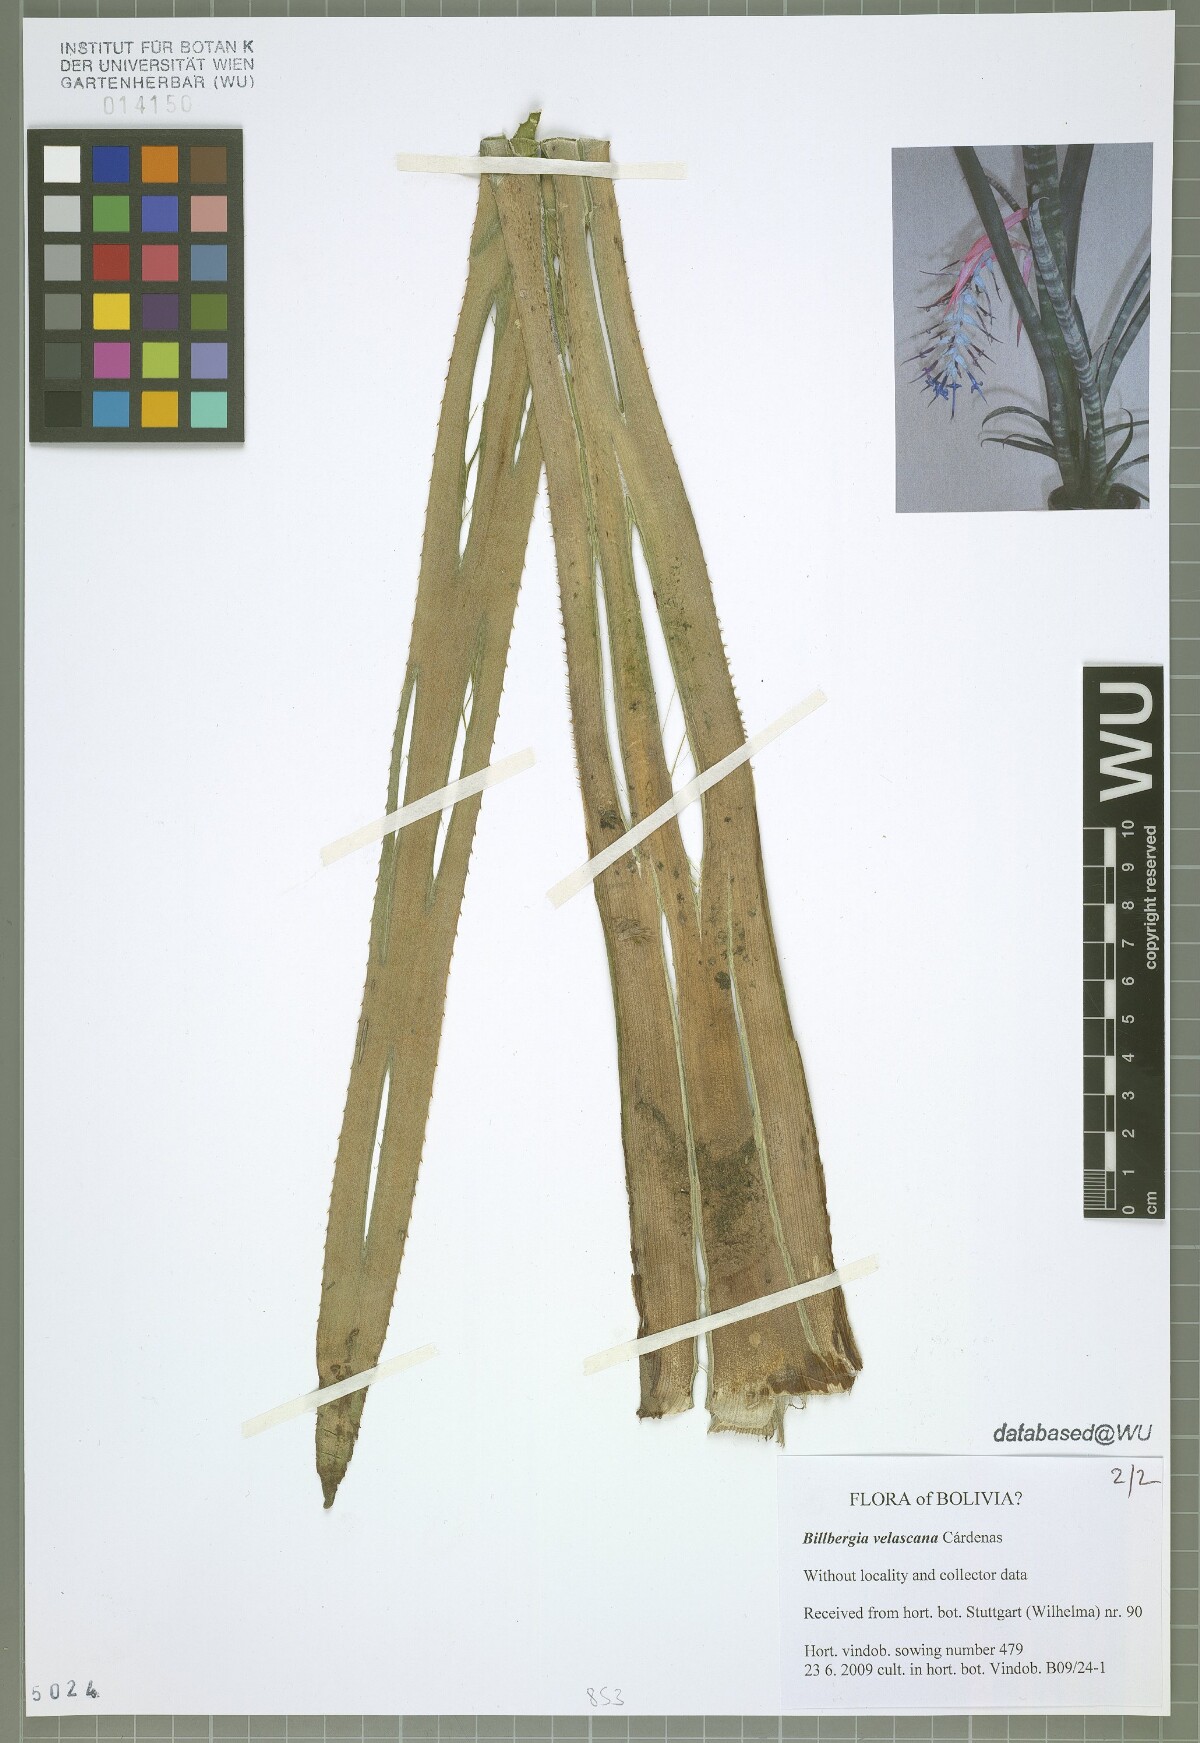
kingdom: Plantae
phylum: Tracheophyta
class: Liliopsida
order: Poales
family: Bromeliaceae
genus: Billbergia
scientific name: Billbergia brasiliensis
